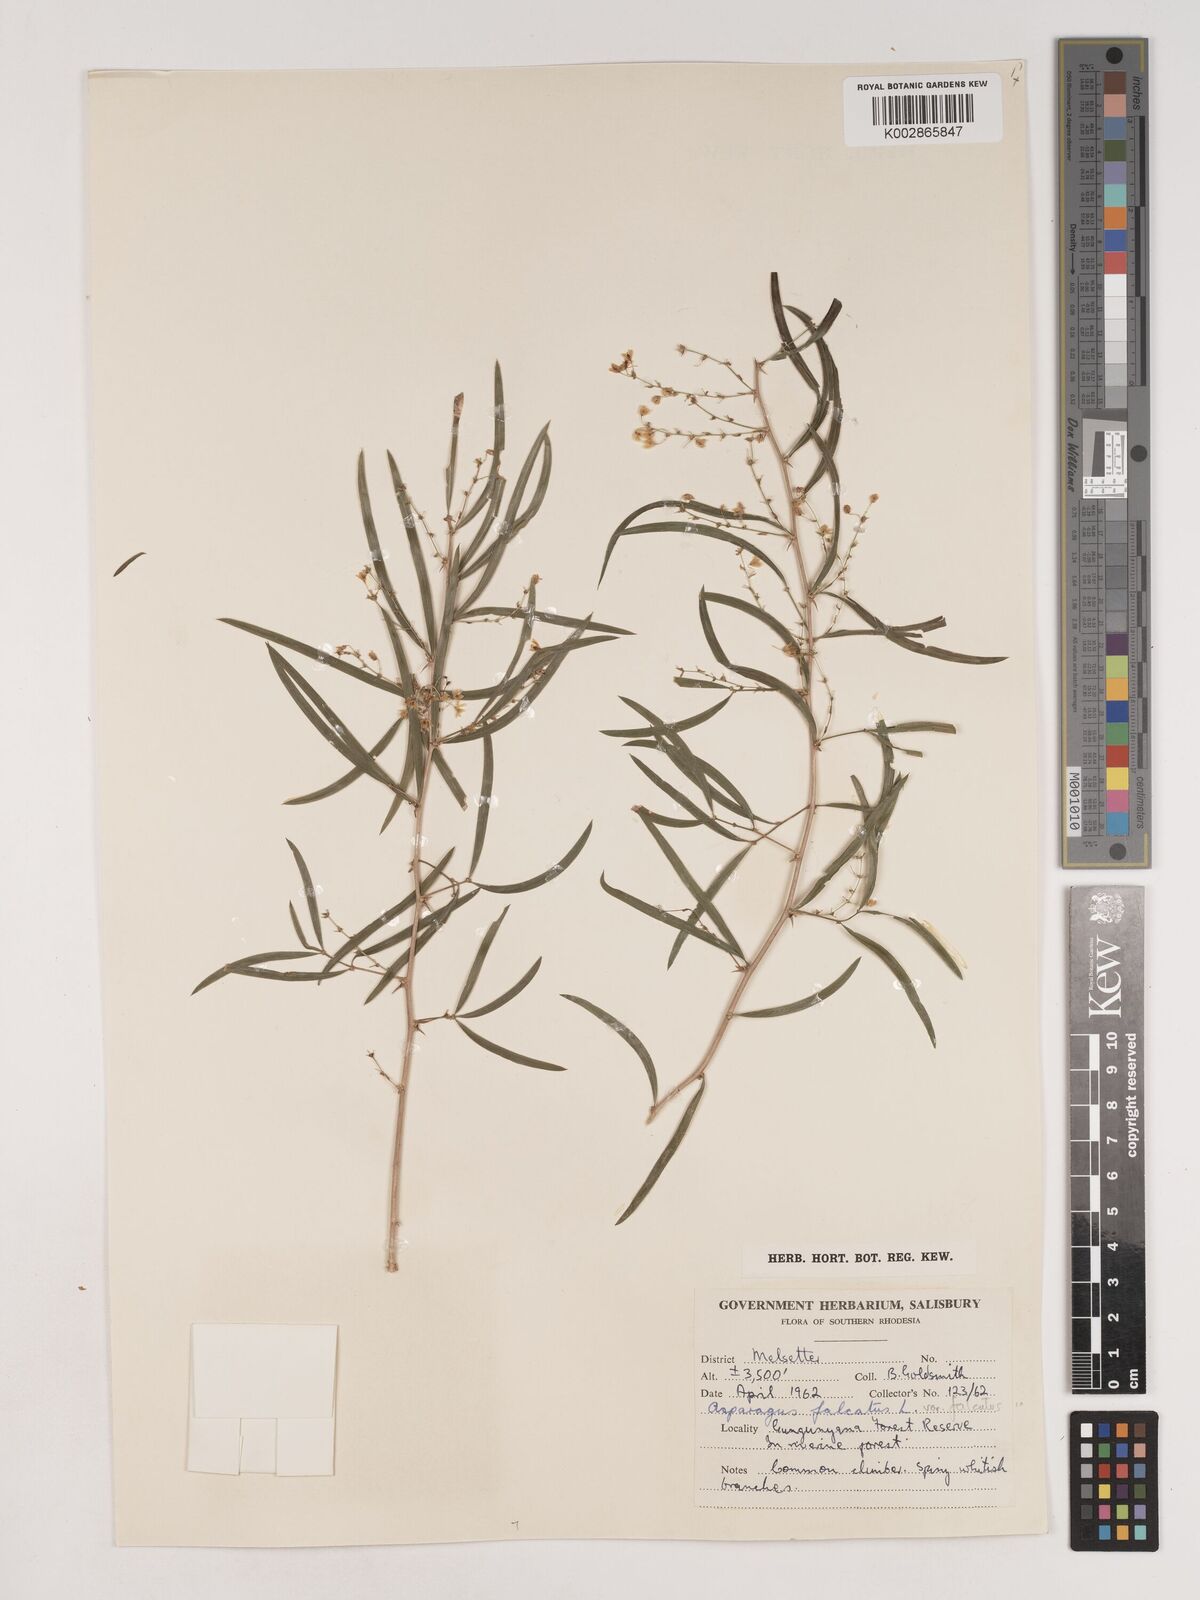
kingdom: Plantae
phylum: Tracheophyta
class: Liliopsida
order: Asparagales
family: Asparagaceae
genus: Asparagus
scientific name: Asparagus falcatus
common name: Asparagus
